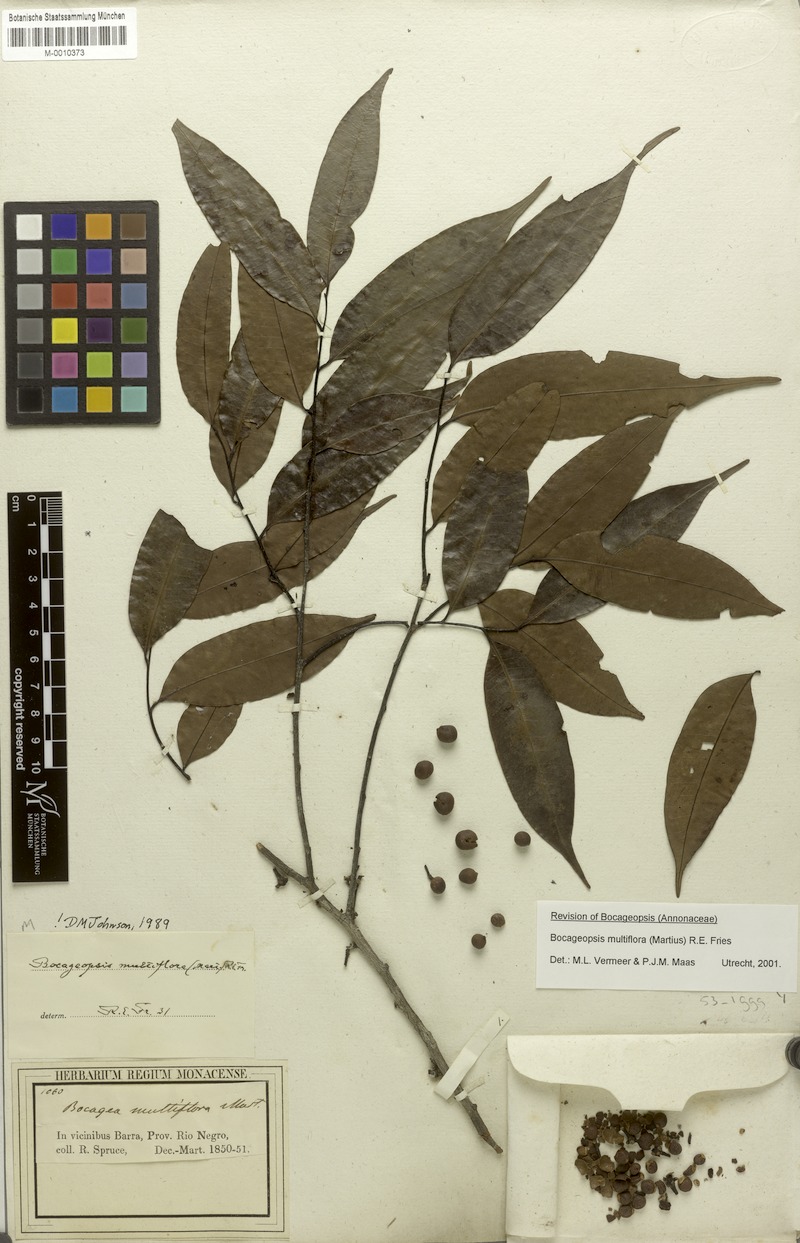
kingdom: Plantae
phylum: Tracheophyta
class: Magnoliopsida
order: Magnoliales
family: Annonaceae
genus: Bocageopsis
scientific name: Bocageopsis multiflora
